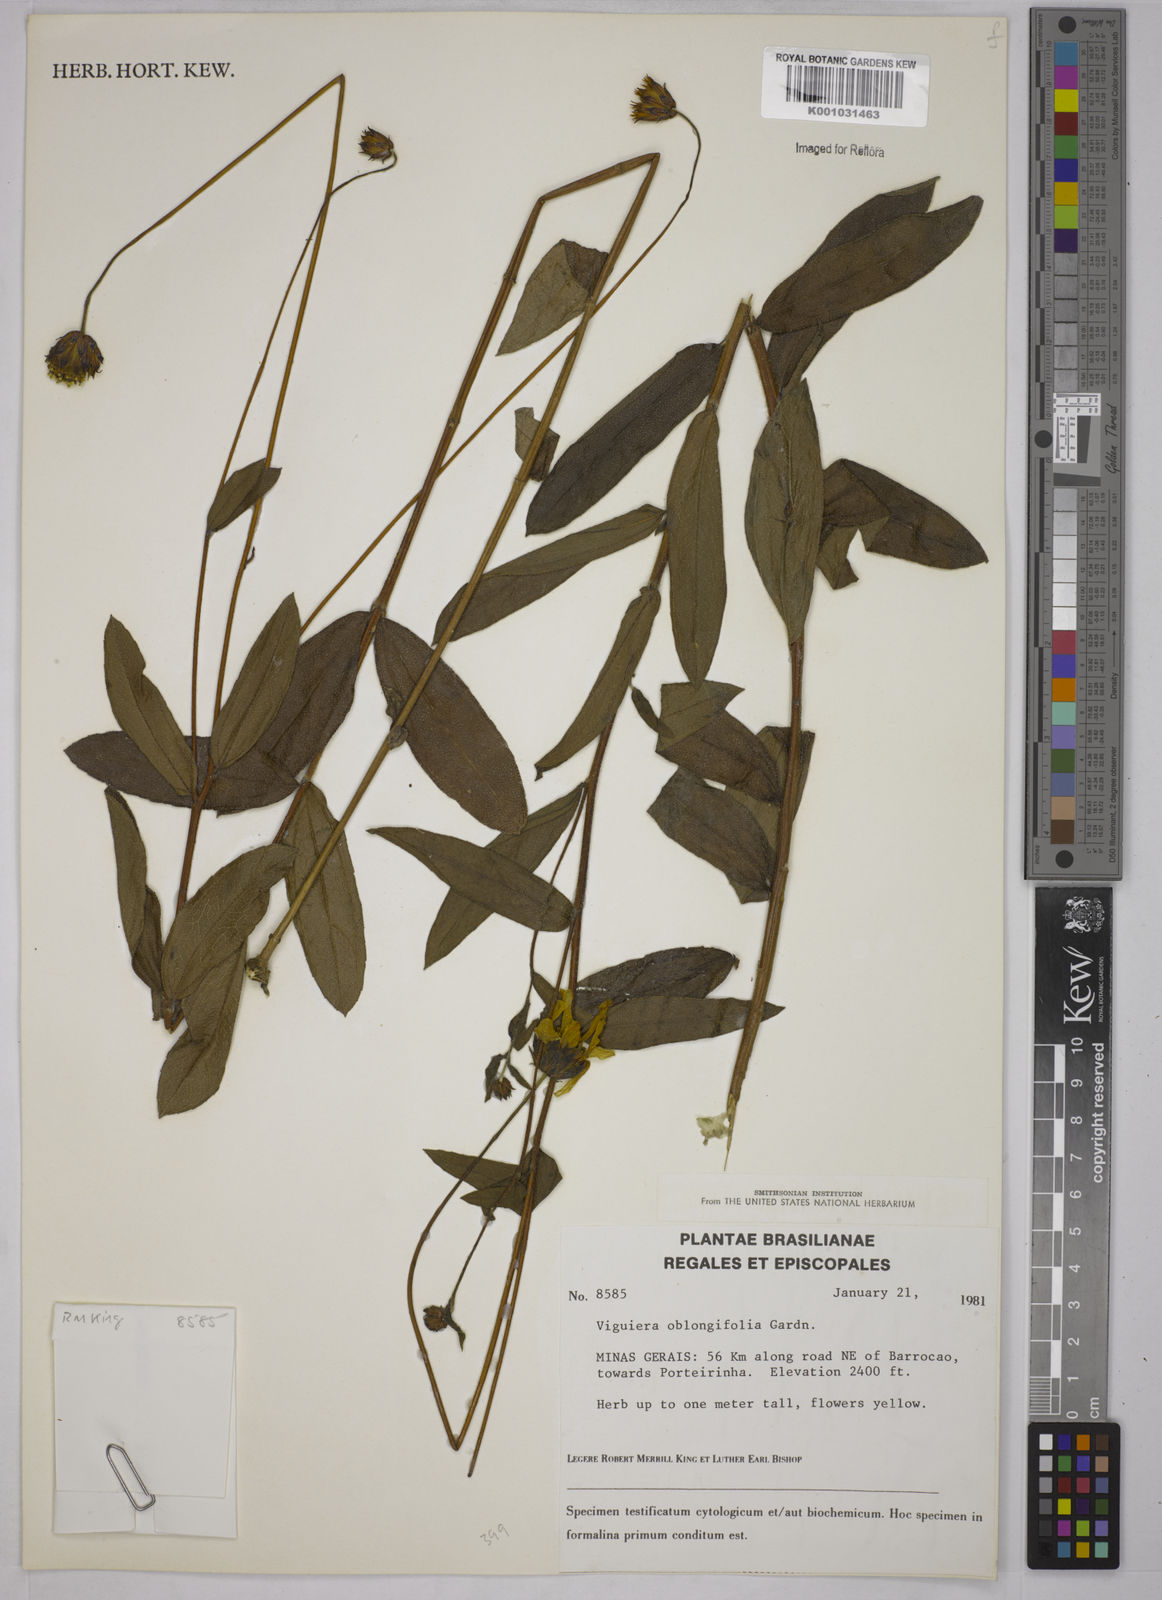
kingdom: Plantae
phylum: Tracheophyta
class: Magnoliopsida
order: Asterales
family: Asteraceae
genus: Aldama
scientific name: Aldama oblongifolia
